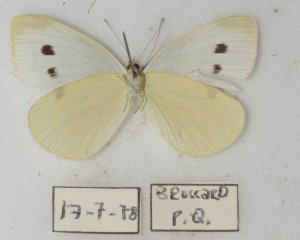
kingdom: Animalia
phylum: Arthropoda
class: Insecta
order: Lepidoptera
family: Pieridae
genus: Pieris
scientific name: Pieris rapae
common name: Cabbage White
